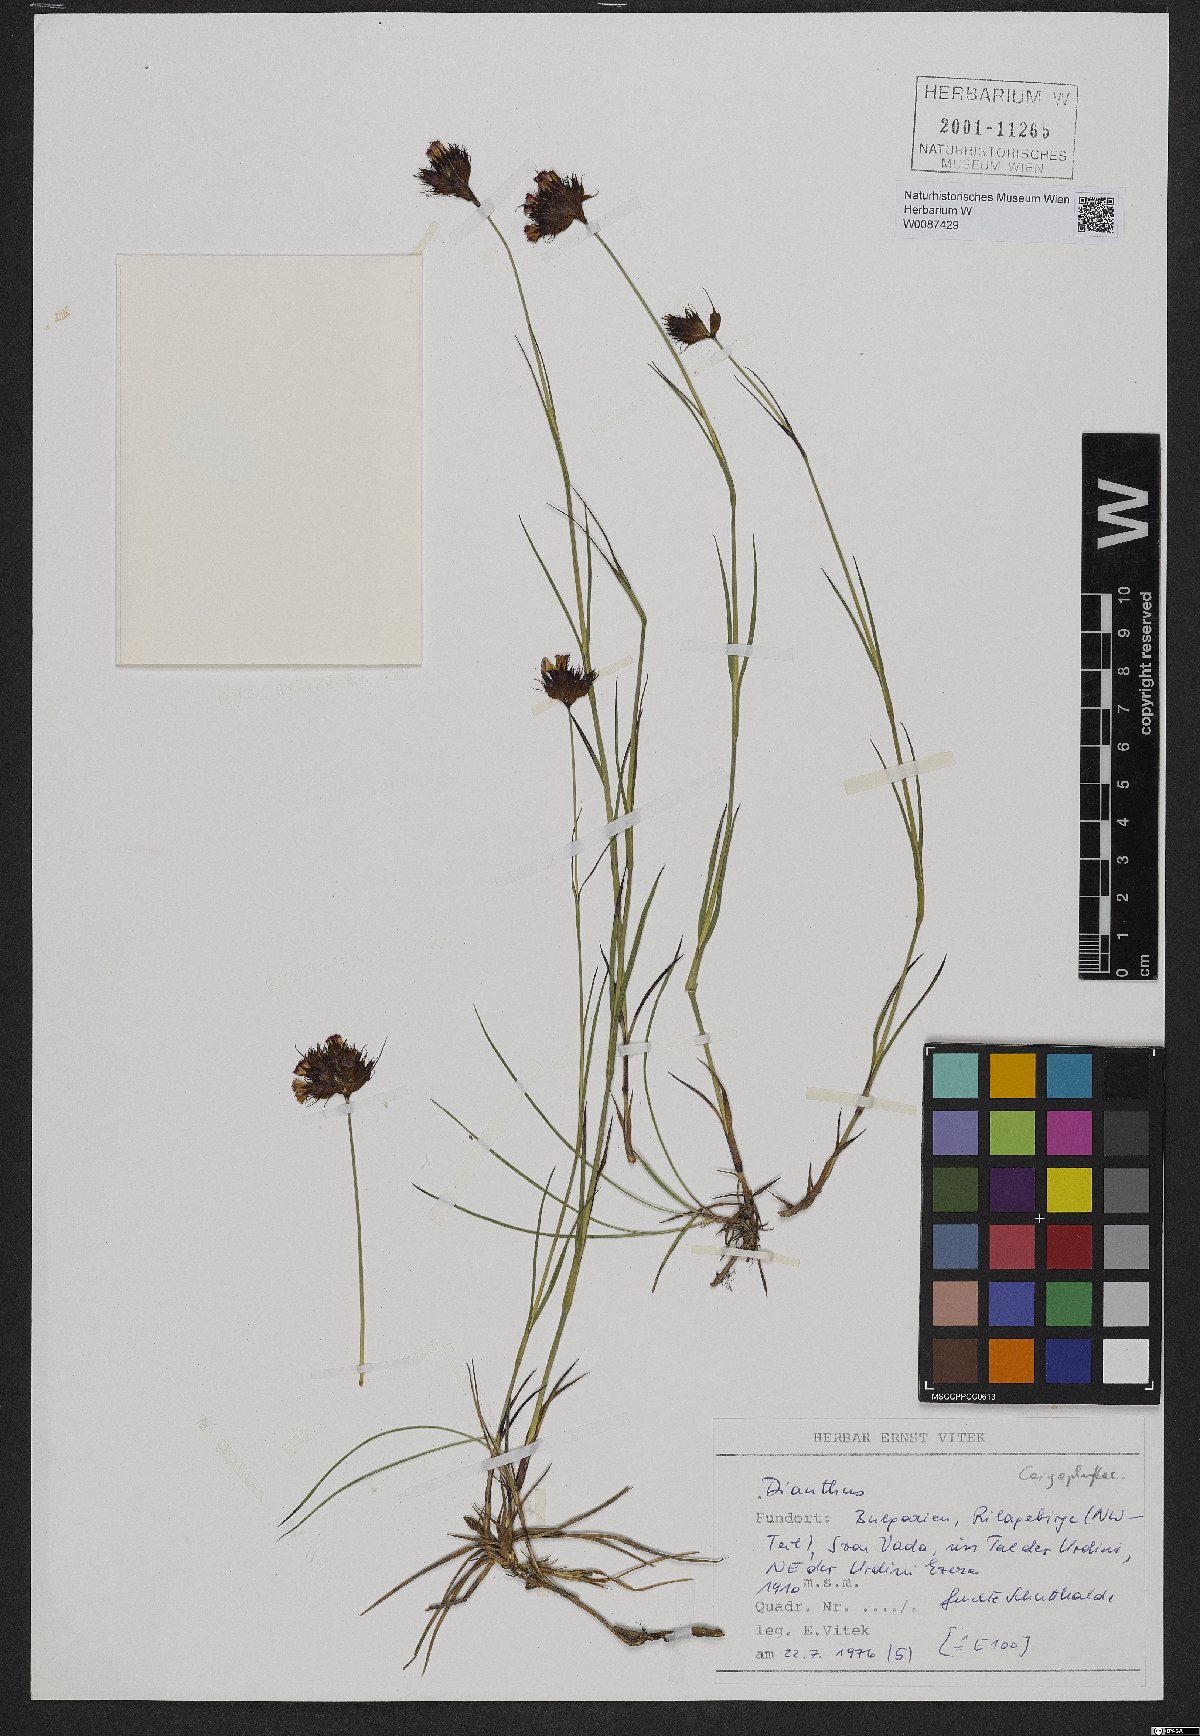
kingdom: Plantae
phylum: Tracheophyta
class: Magnoliopsida
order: Caryophyllales
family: Caryophyllaceae
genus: Dianthus
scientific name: Dianthus
